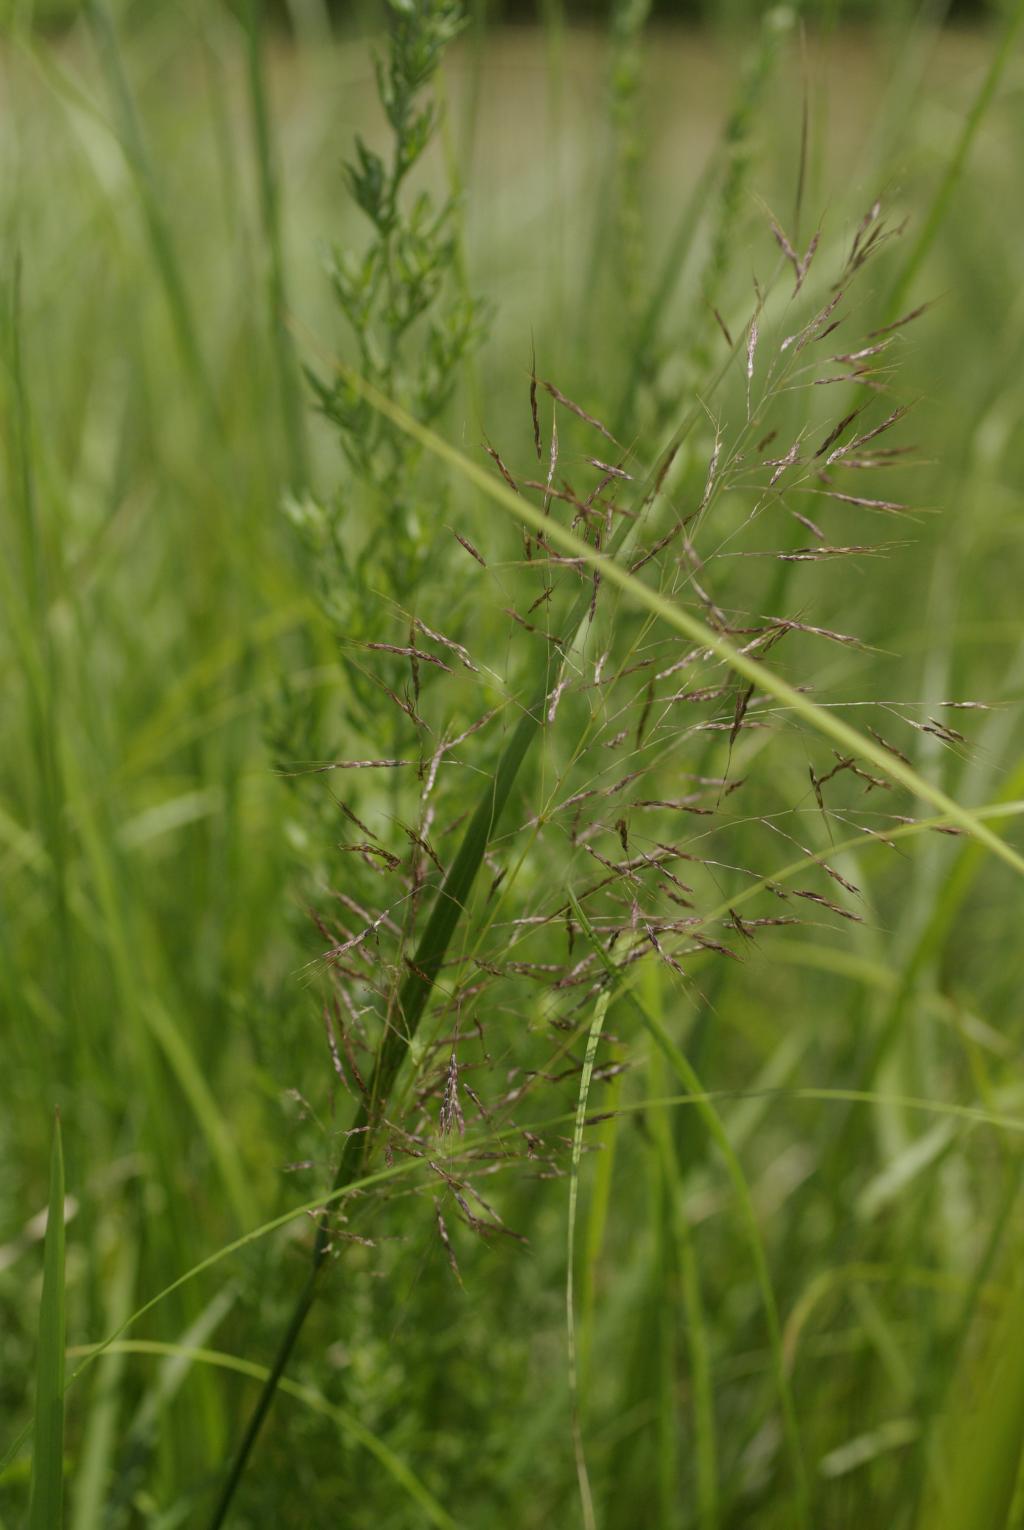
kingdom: Plantae
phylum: Tracheophyta
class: Liliopsida
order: Poales
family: Poaceae
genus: Capillipedium
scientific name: Capillipedium parviflorum
